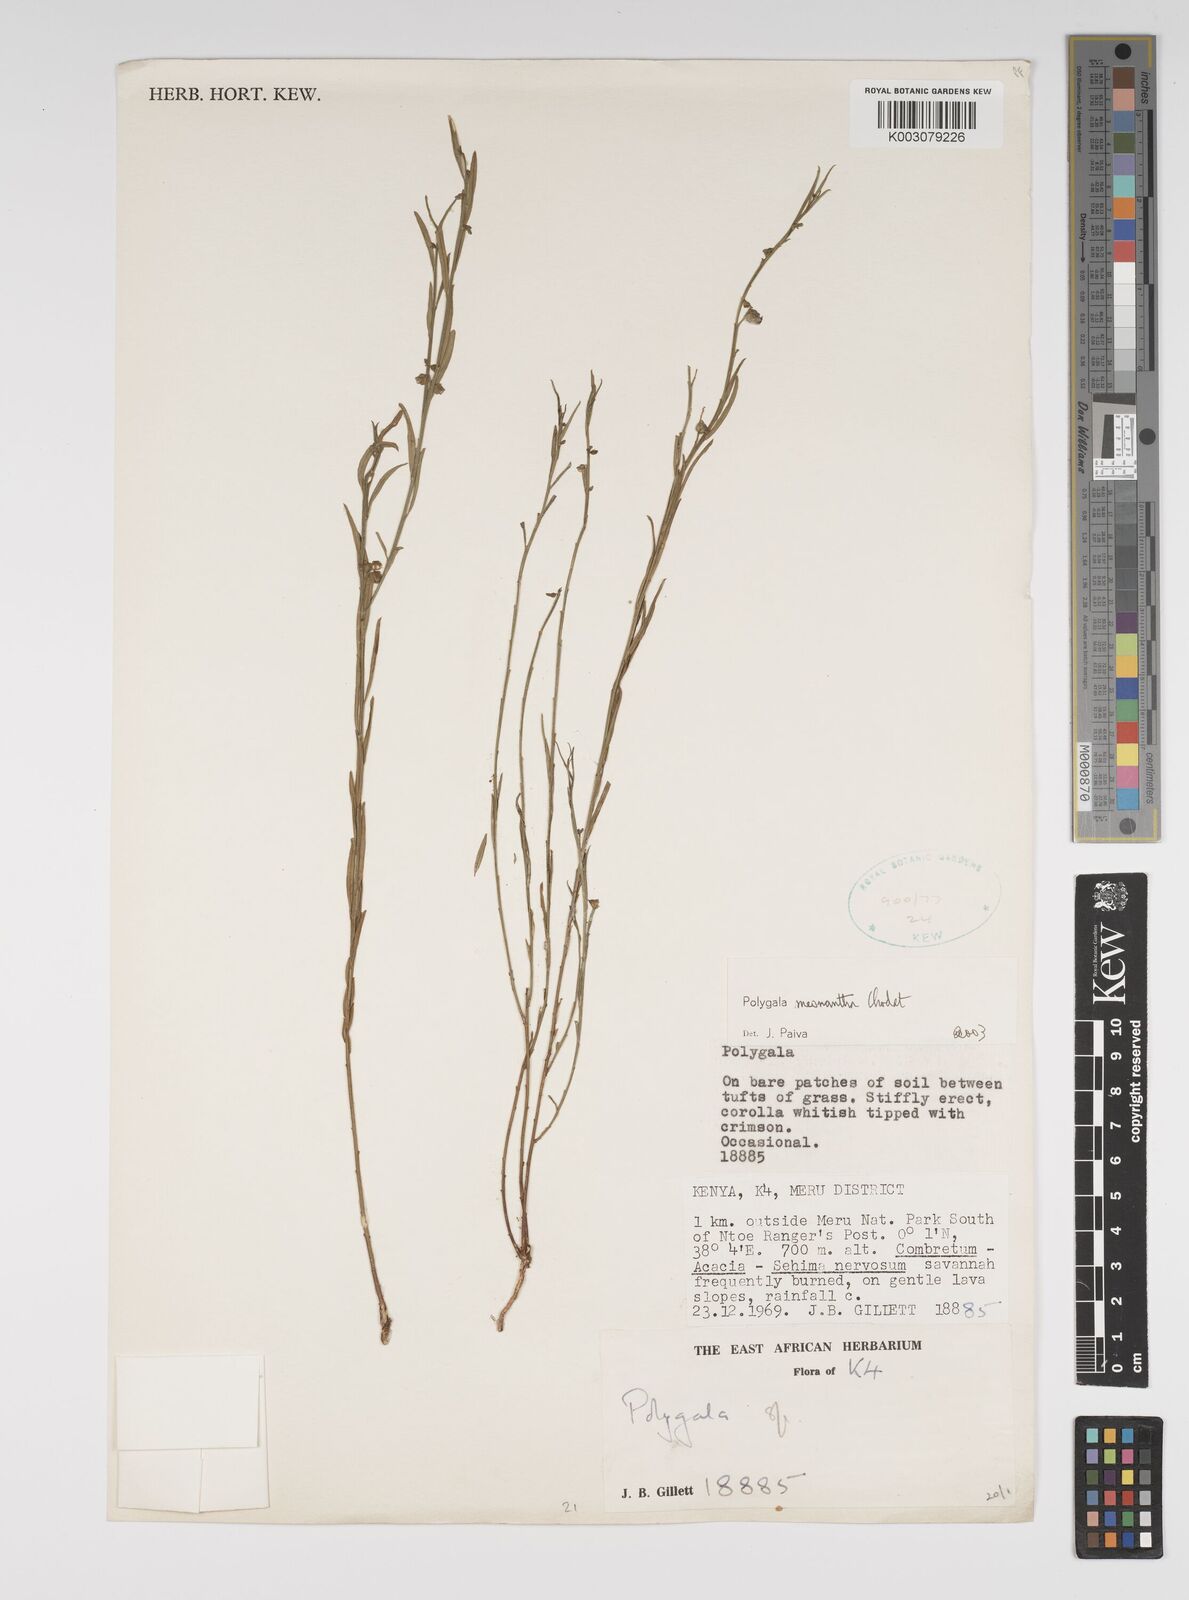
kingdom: Plantae
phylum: Tracheophyta
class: Magnoliopsida
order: Fabales
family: Polygalaceae
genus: Polygala
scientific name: Polygala meonantha
